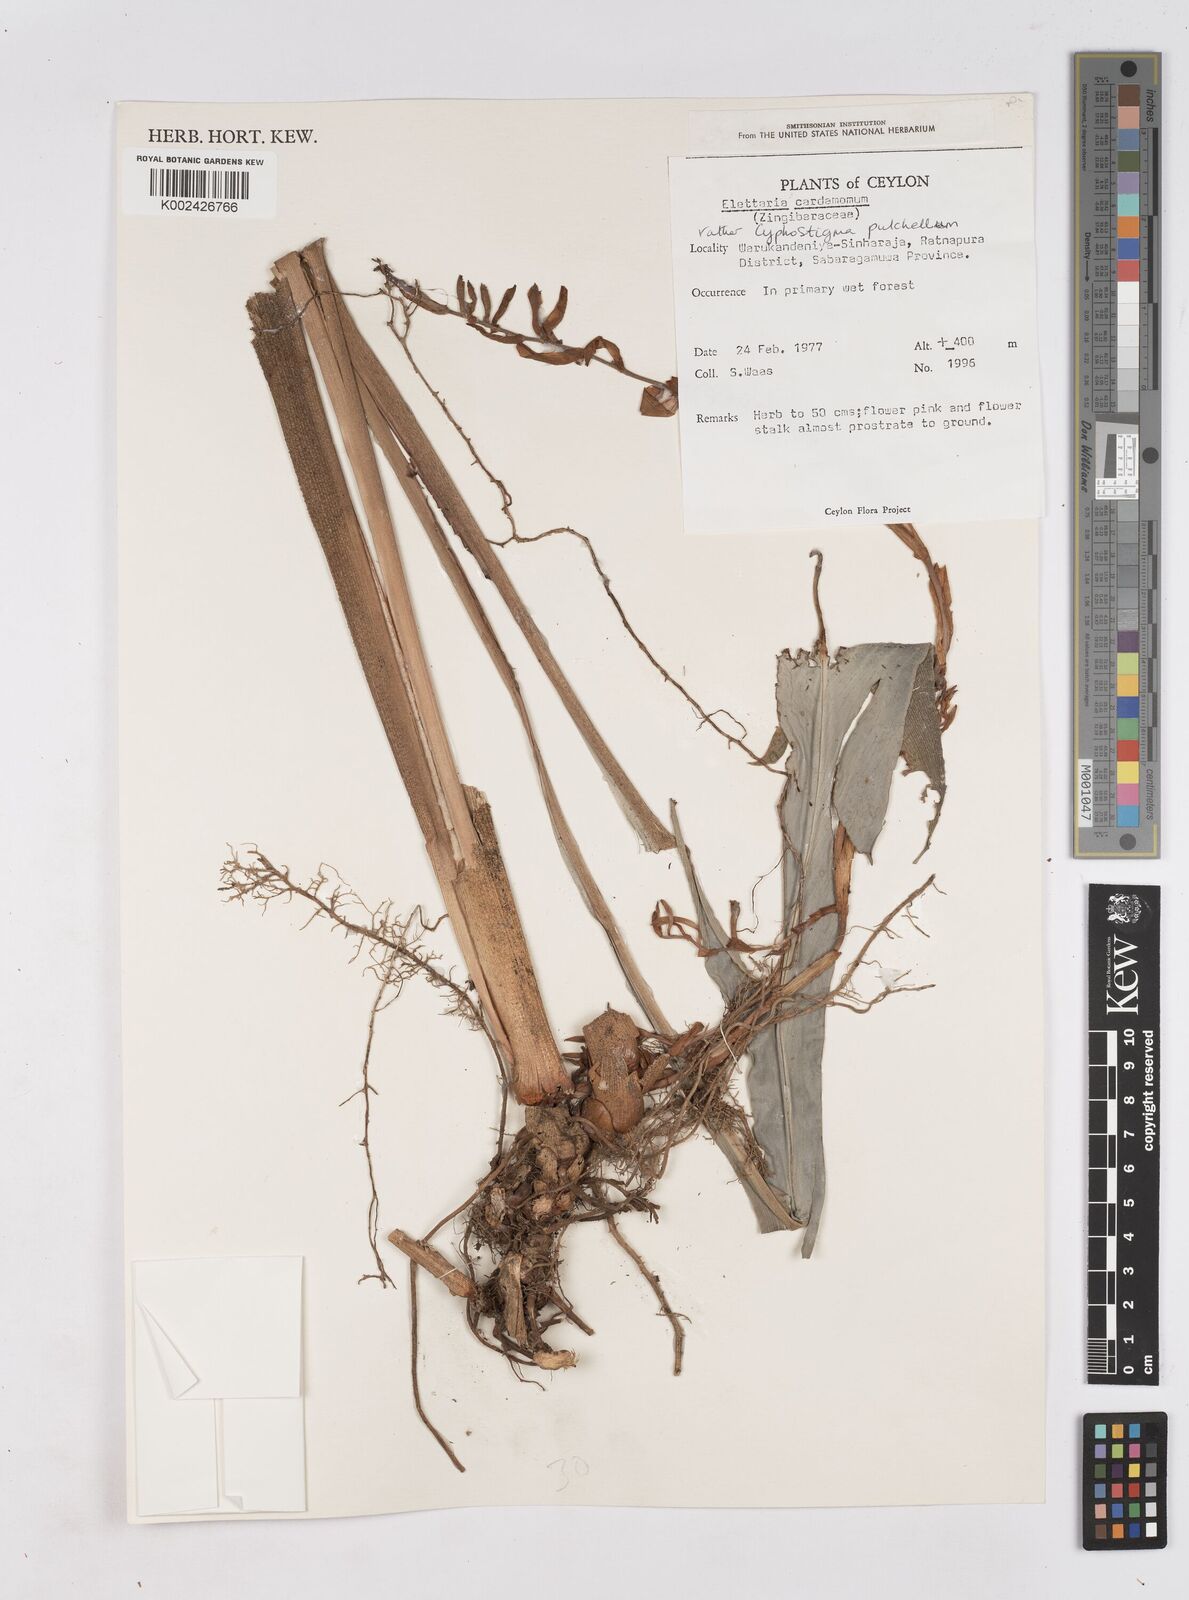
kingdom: Plantae
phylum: Tracheophyta
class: Liliopsida
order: Zingiberales
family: Zingiberaceae
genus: Cyphostigma
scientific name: Cyphostigma pulchellum
